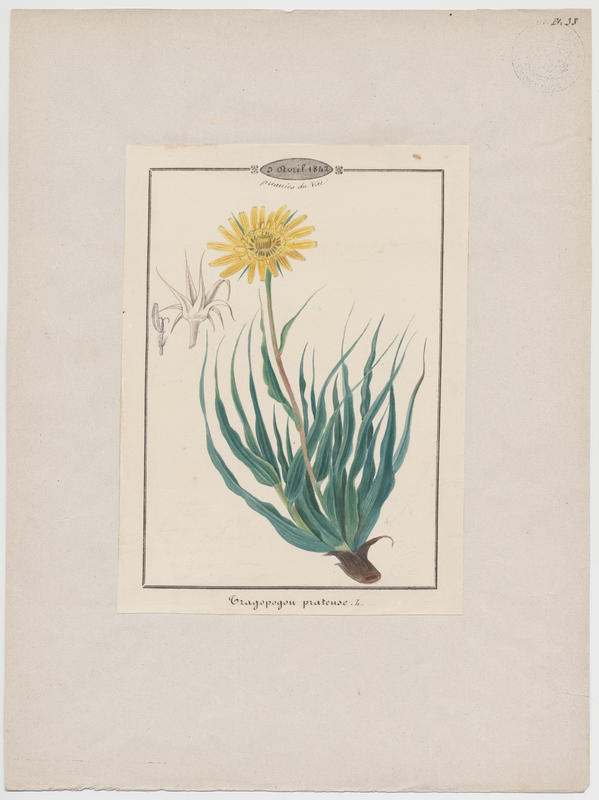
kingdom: Plantae
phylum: Tracheophyta
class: Magnoliopsida
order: Asterales
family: Asteraceae
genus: Tragopogon
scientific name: Tragopogon pratensis
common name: Goat's-beard
